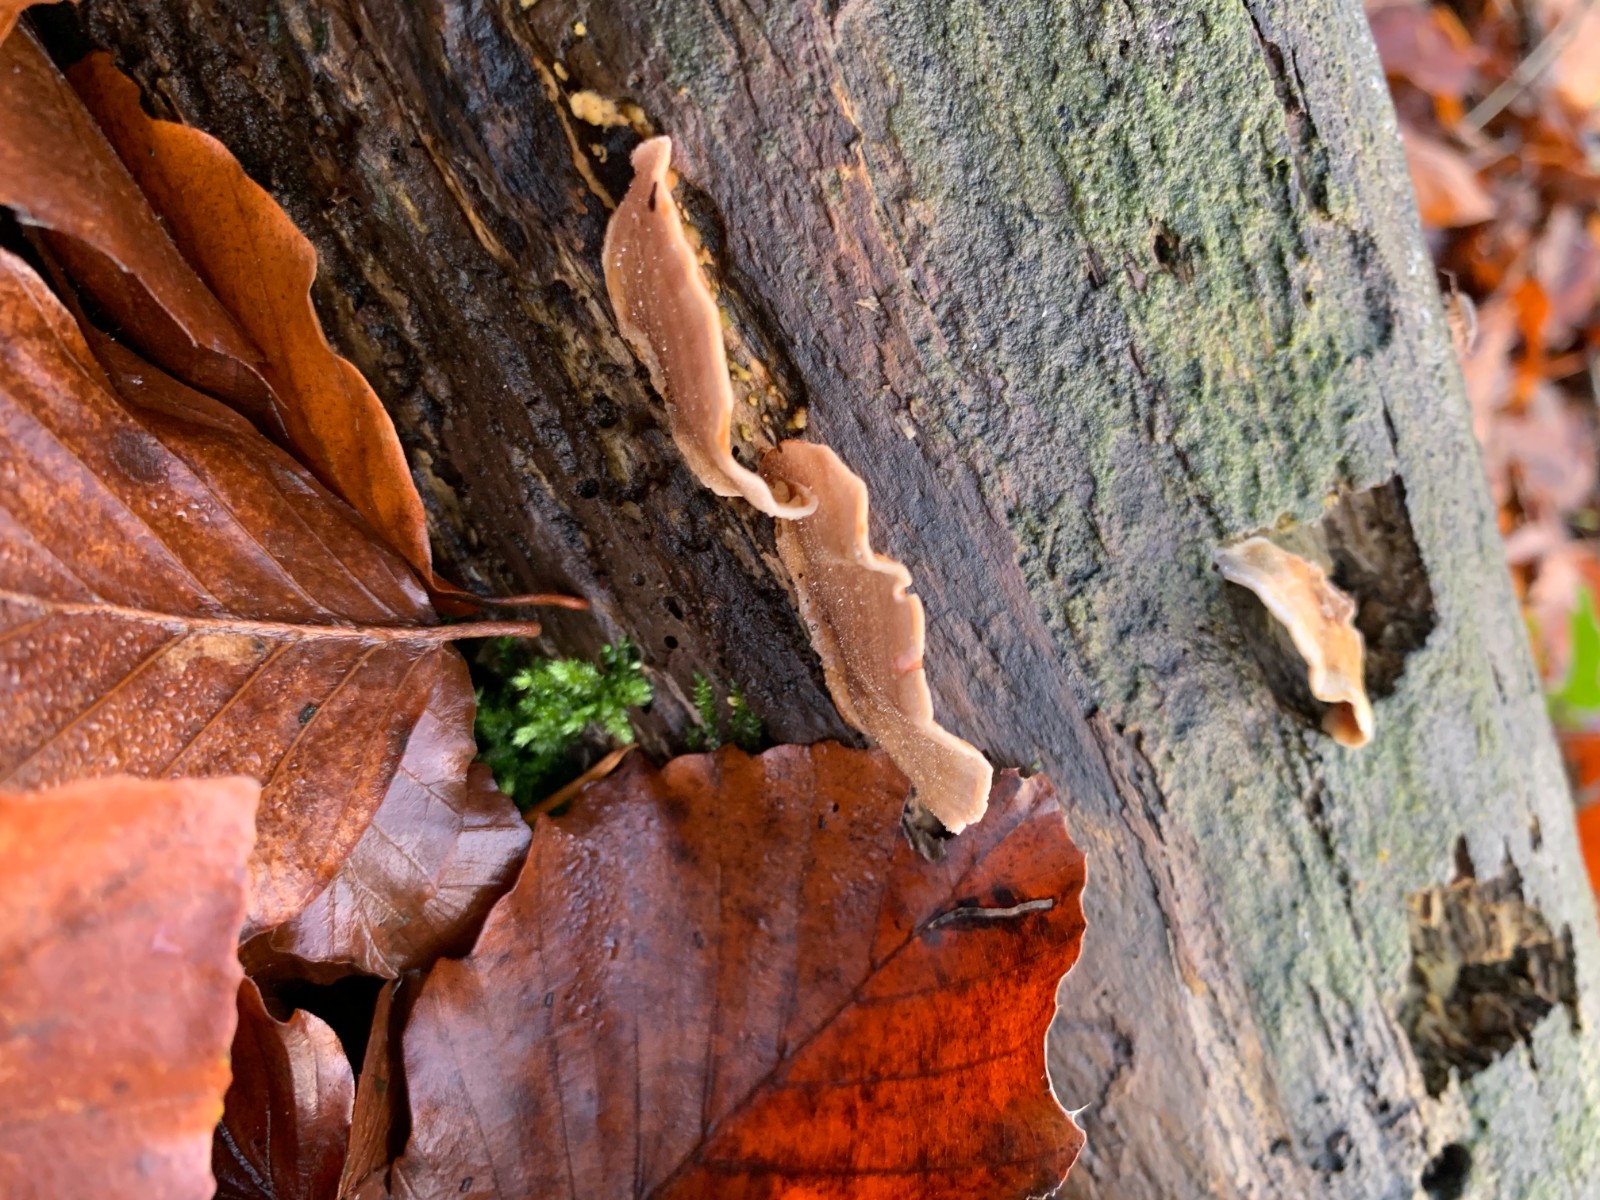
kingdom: Fungi
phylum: Basidiomycota
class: Agaricomycetes
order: Russulales
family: Stereaceae
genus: Stereum
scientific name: Stereum subtomentosum
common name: smuk lædersvamp
